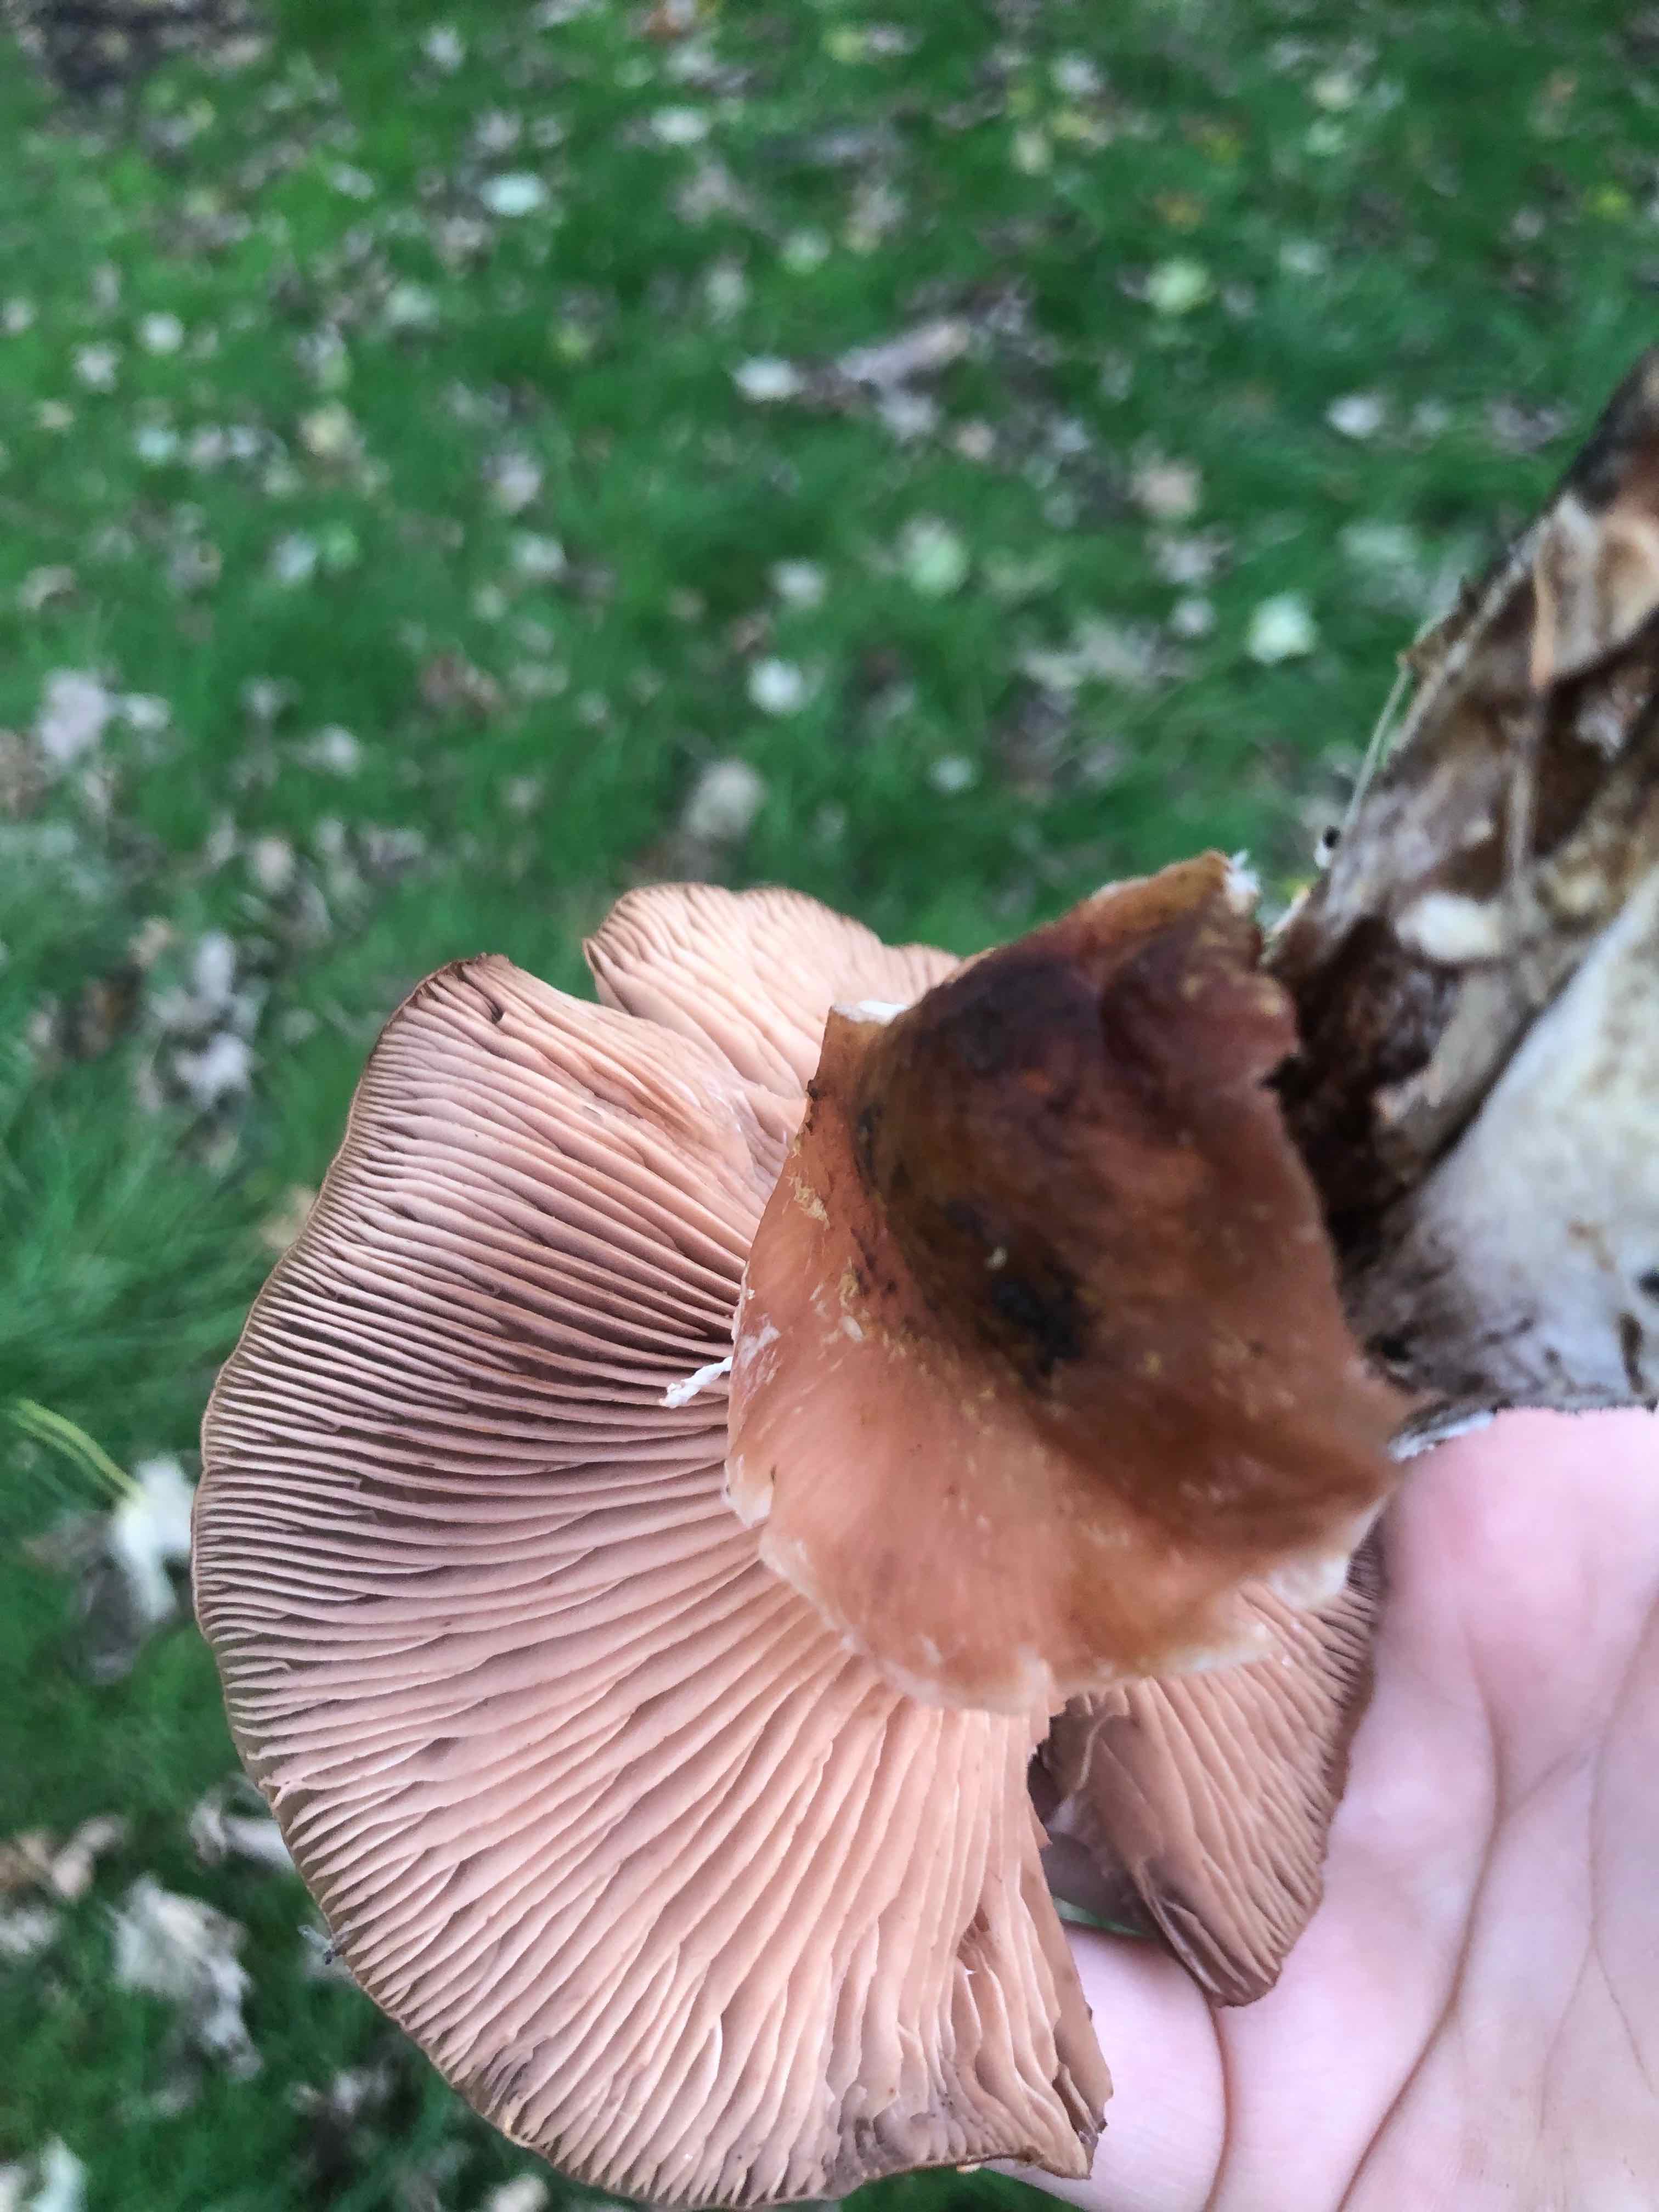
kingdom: Fungi
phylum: Basidiomycota
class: Agaricomycetes
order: Agaricales
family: Physalacriaceae
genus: Armillaria
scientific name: Armillaria
